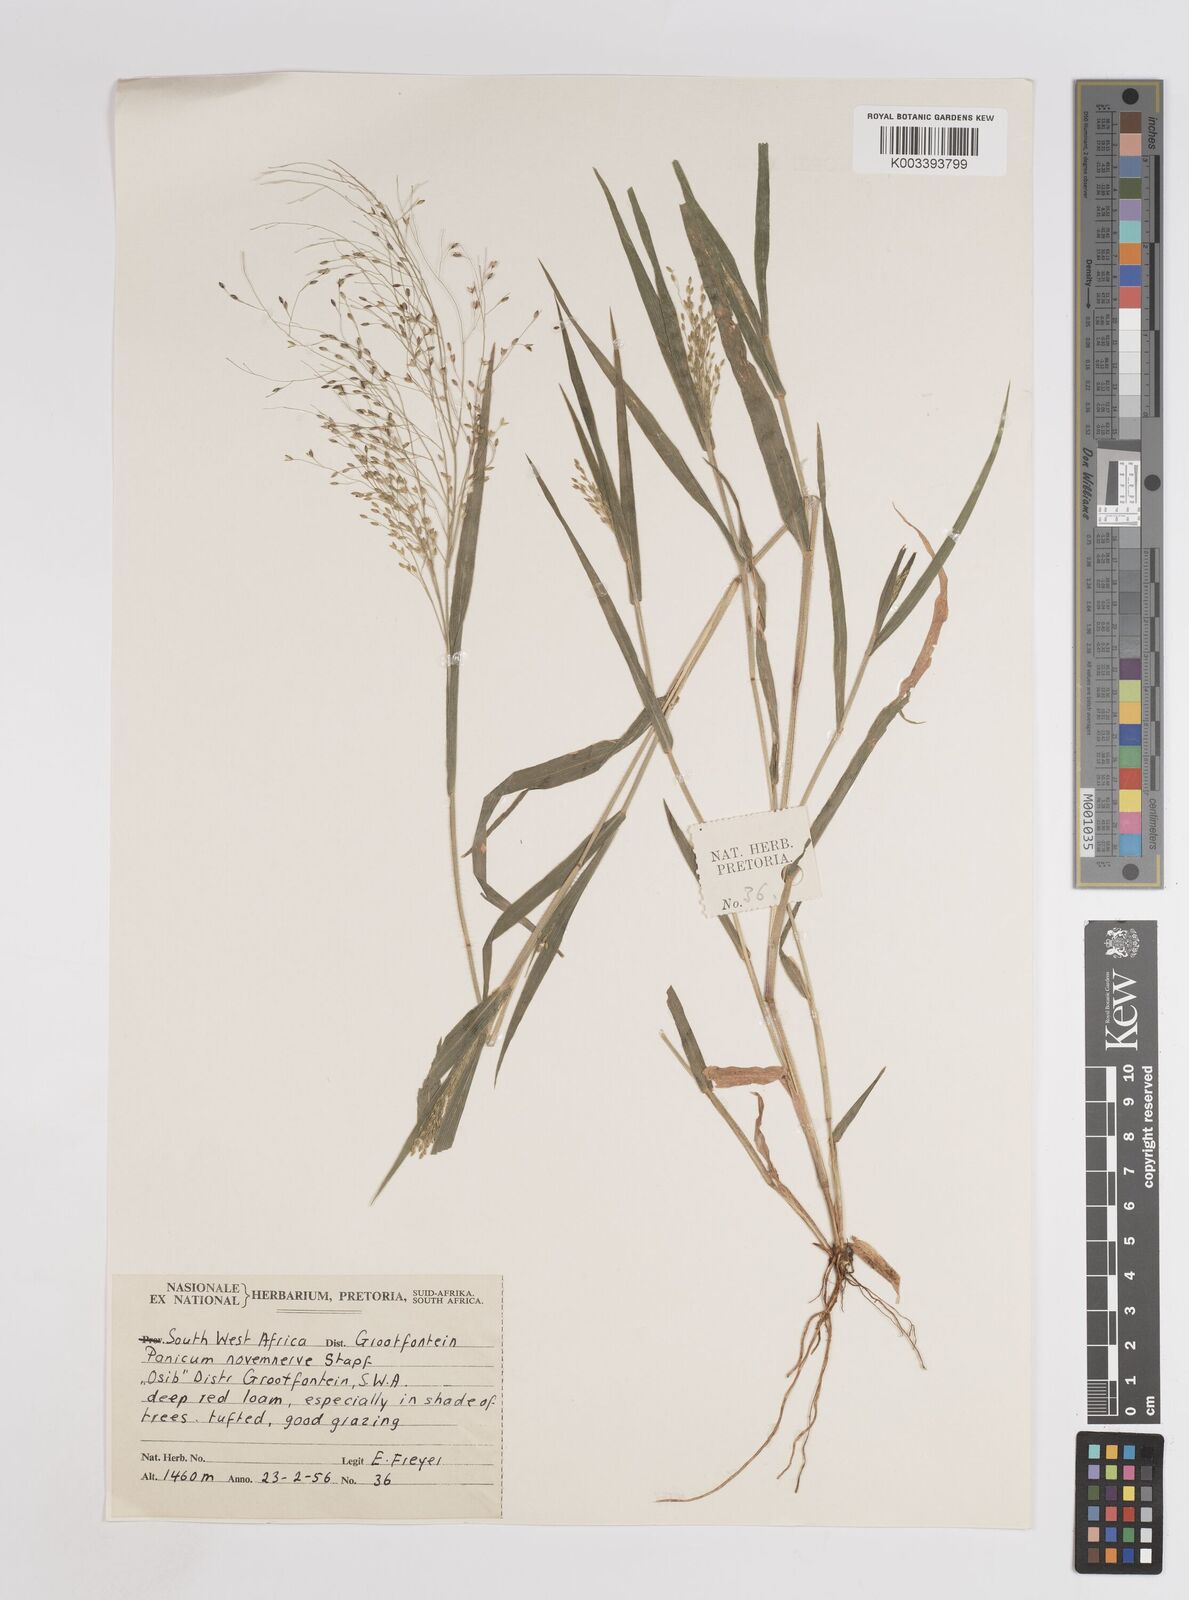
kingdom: Plantae
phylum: Tracheophyta
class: Liliopsida
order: Poales
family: Poaceae
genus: Panicum
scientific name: Panicum novemnerve
